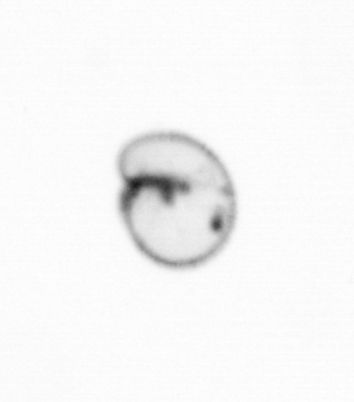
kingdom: Chromista
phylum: Myzozoa
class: Dinophyceae
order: Noctilucales
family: Noctilucaceae
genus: Noctiluca
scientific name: Noctiluca scintillans
